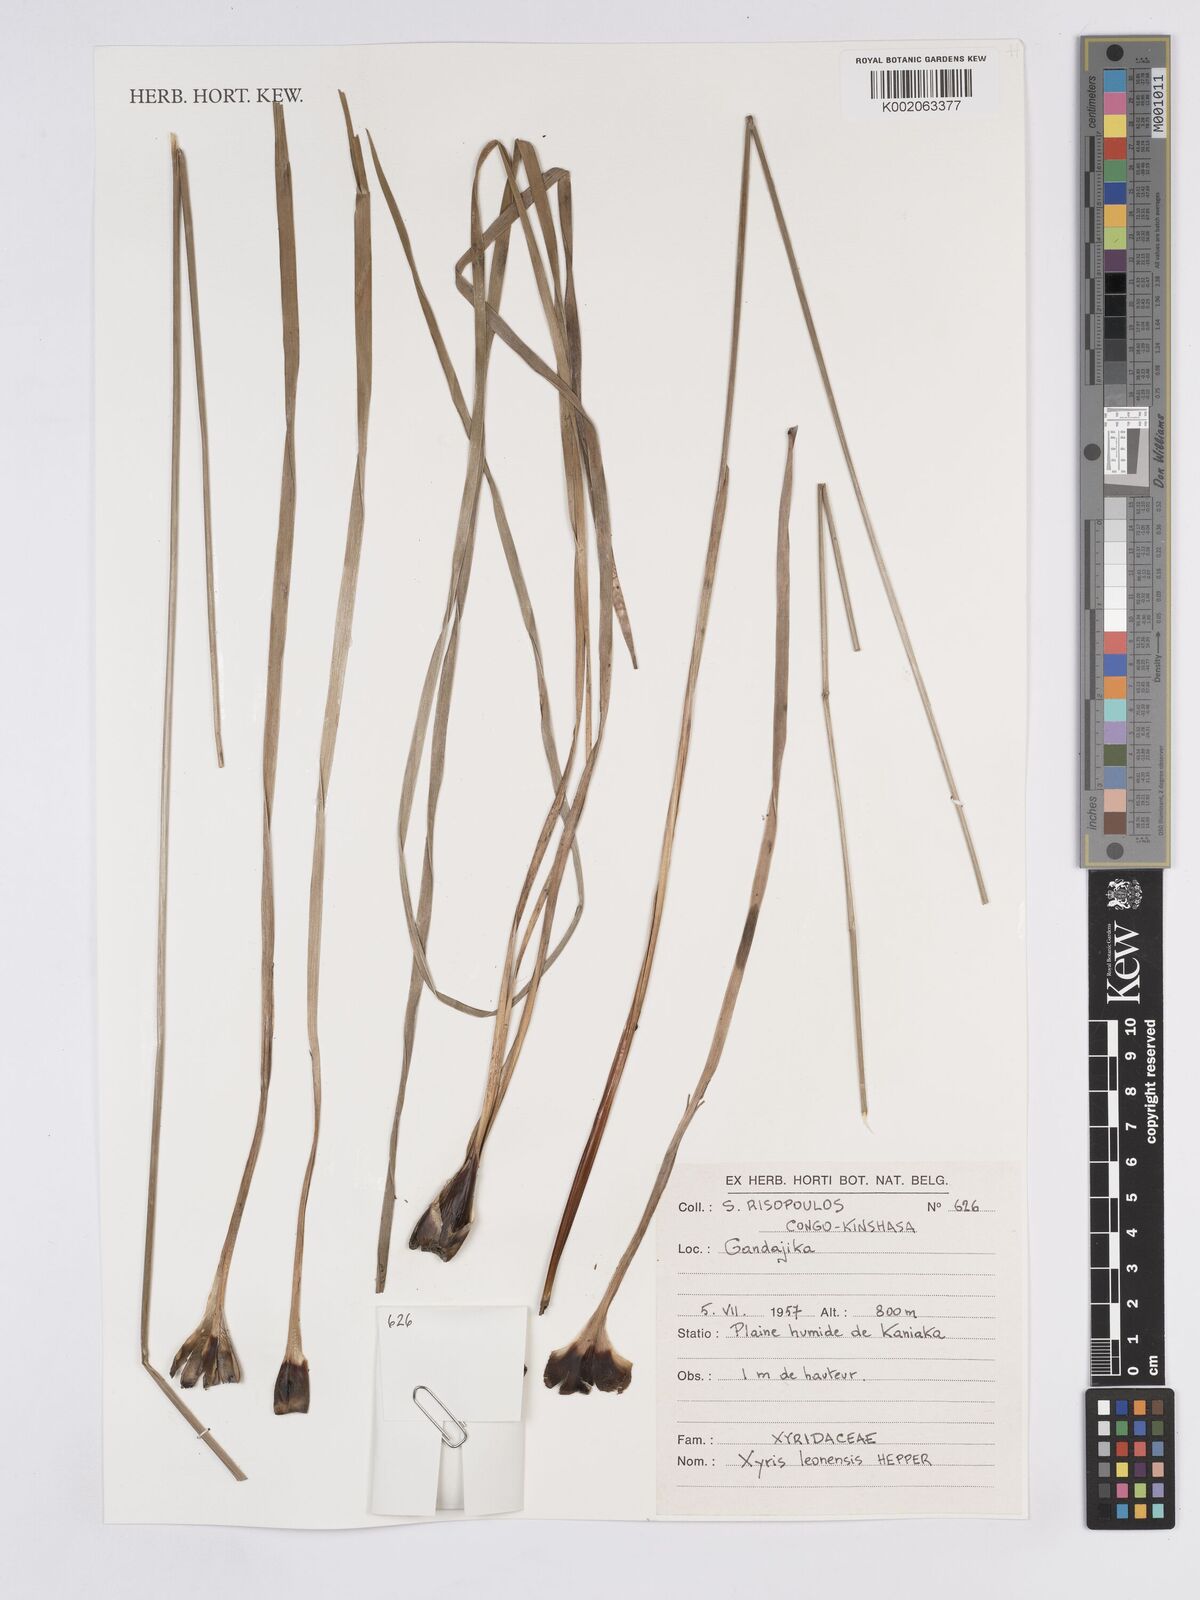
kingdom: Plantae
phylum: Tracheophyta
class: Liliopsida
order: Poales
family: Xyridaceae
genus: Xyris
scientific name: Xyris leonensis
